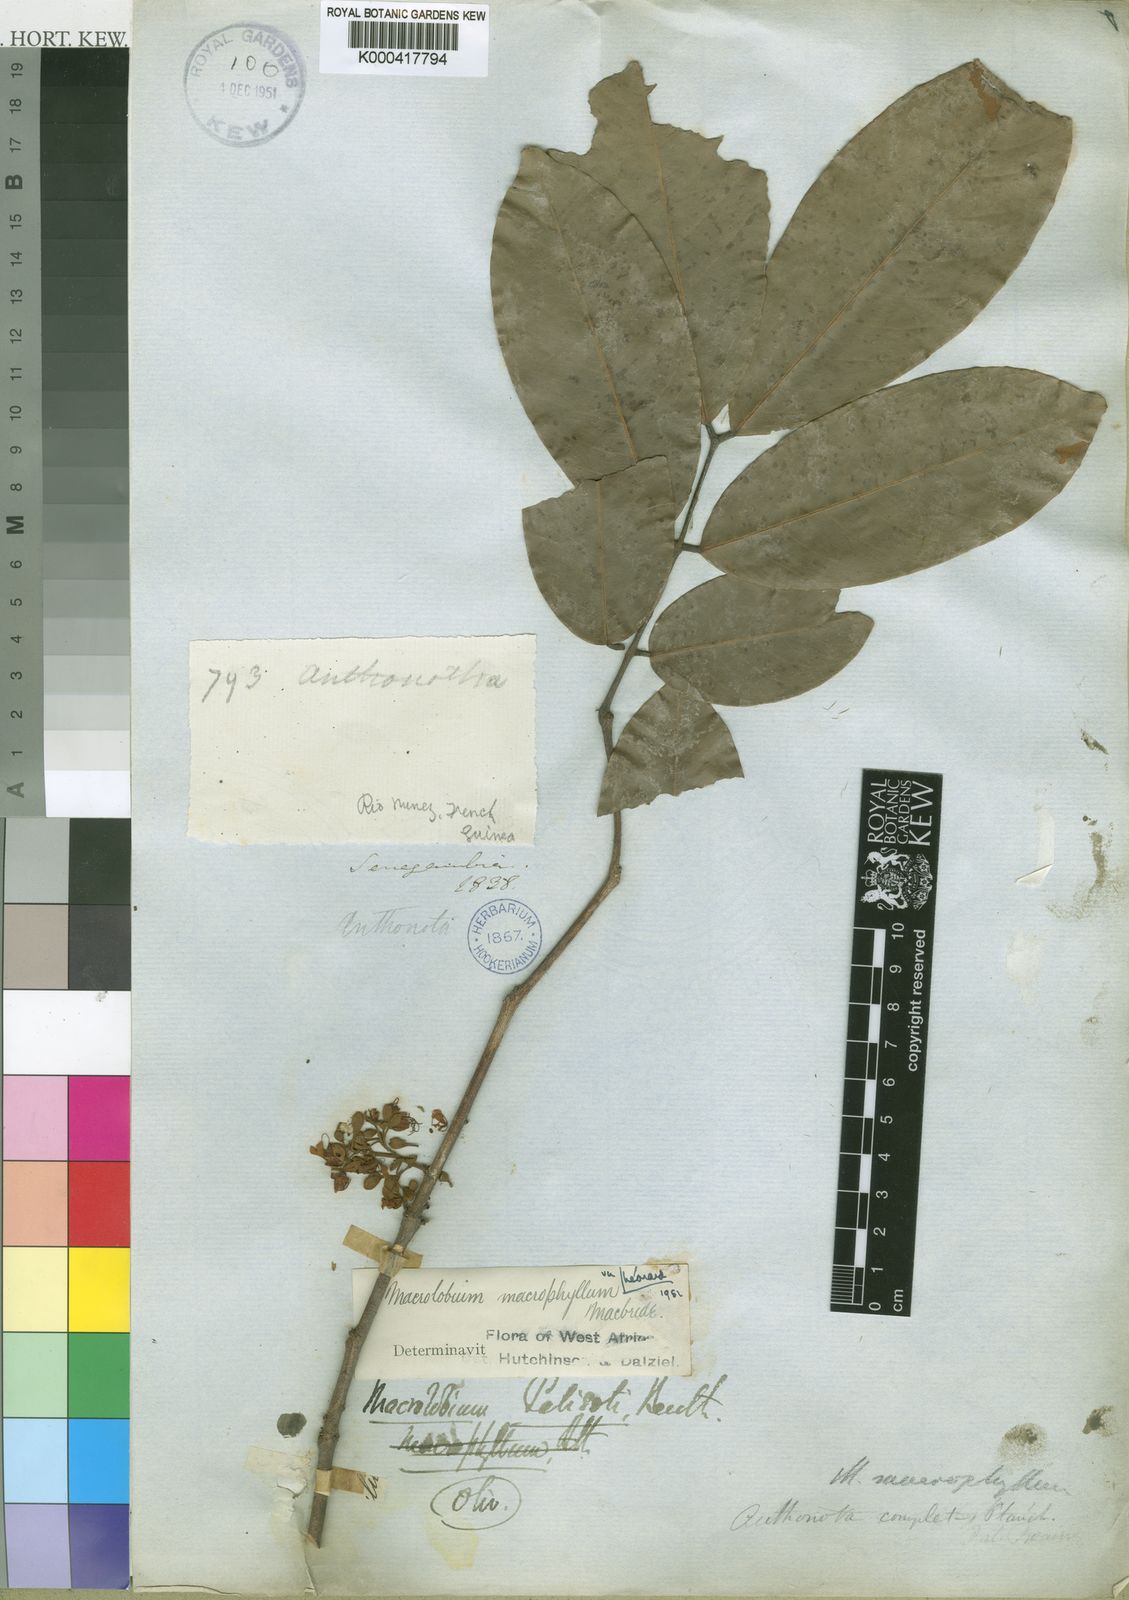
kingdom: Plantae
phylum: Tracheophyta
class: Magnoliopsida
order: Fabales
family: Fabaceae
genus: Anthonotha
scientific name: Anthonotha crassifolia
